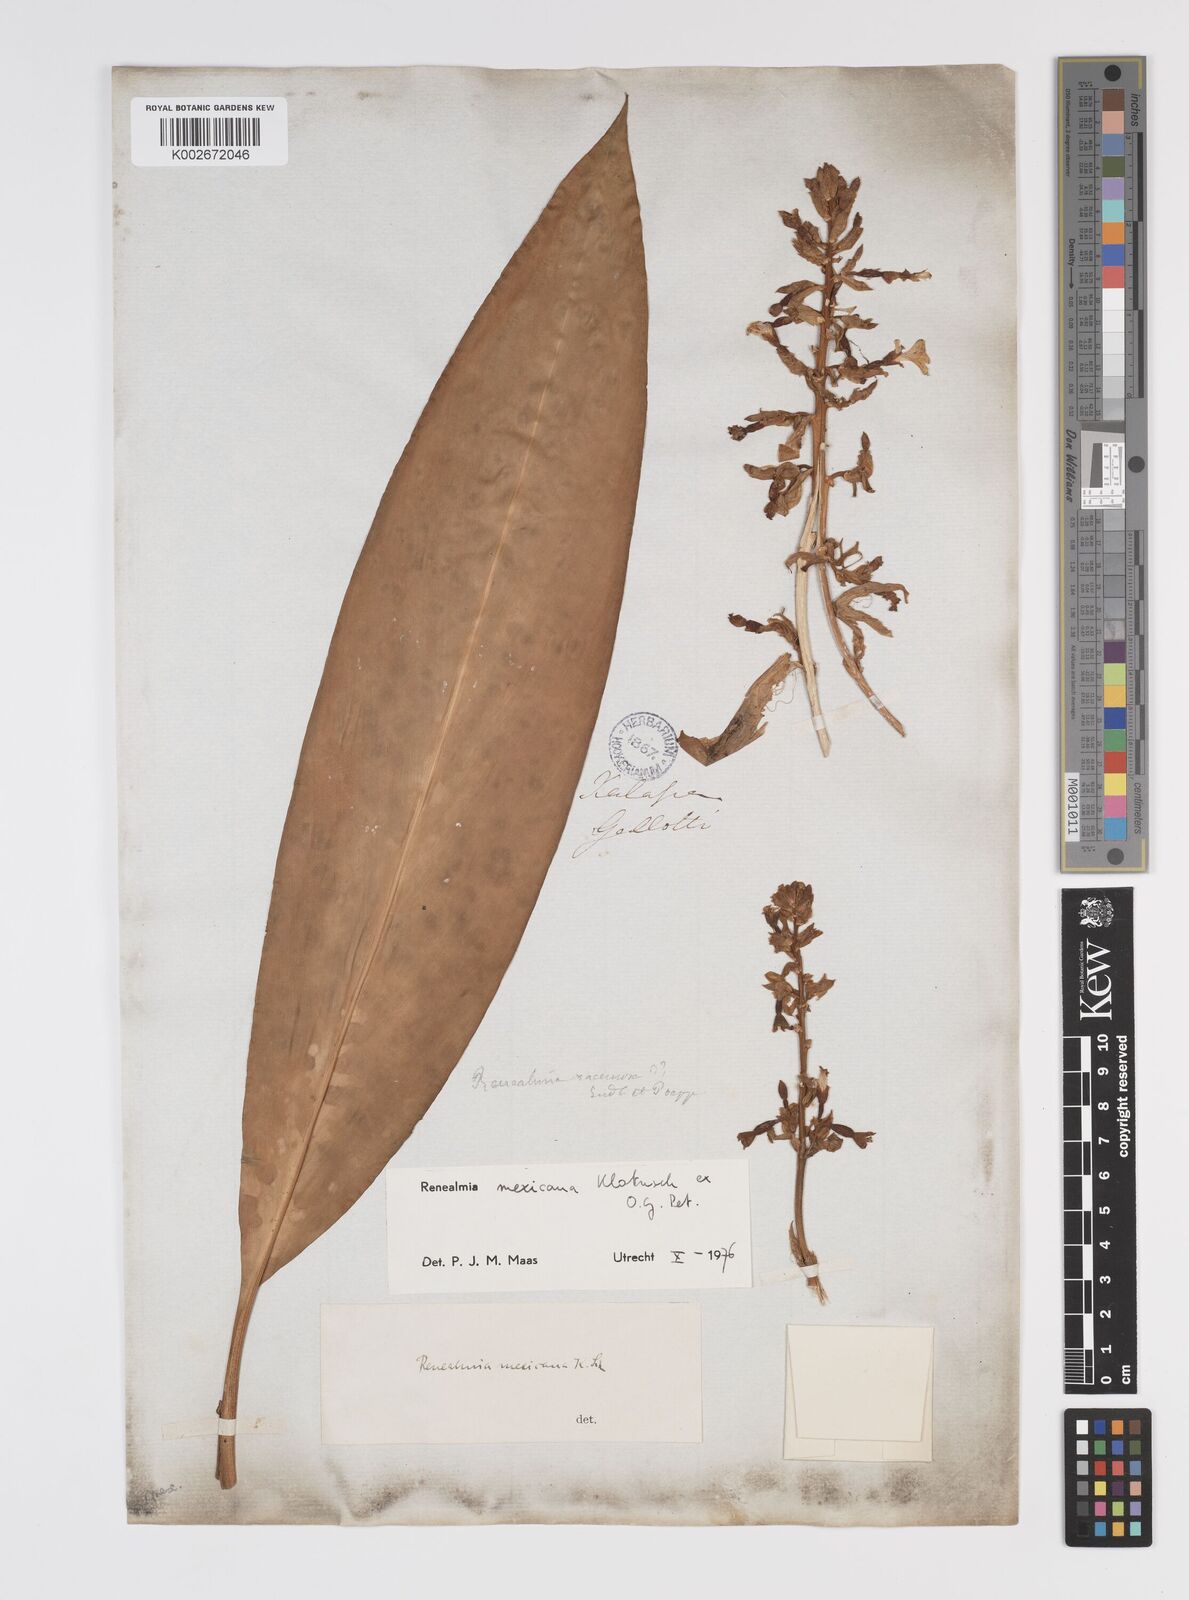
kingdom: Plantae
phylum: Tracheophyta
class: Liliopsida
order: Zingiberales
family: Zingiberaceae
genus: Renealmia
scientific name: Renealmia mexicana
